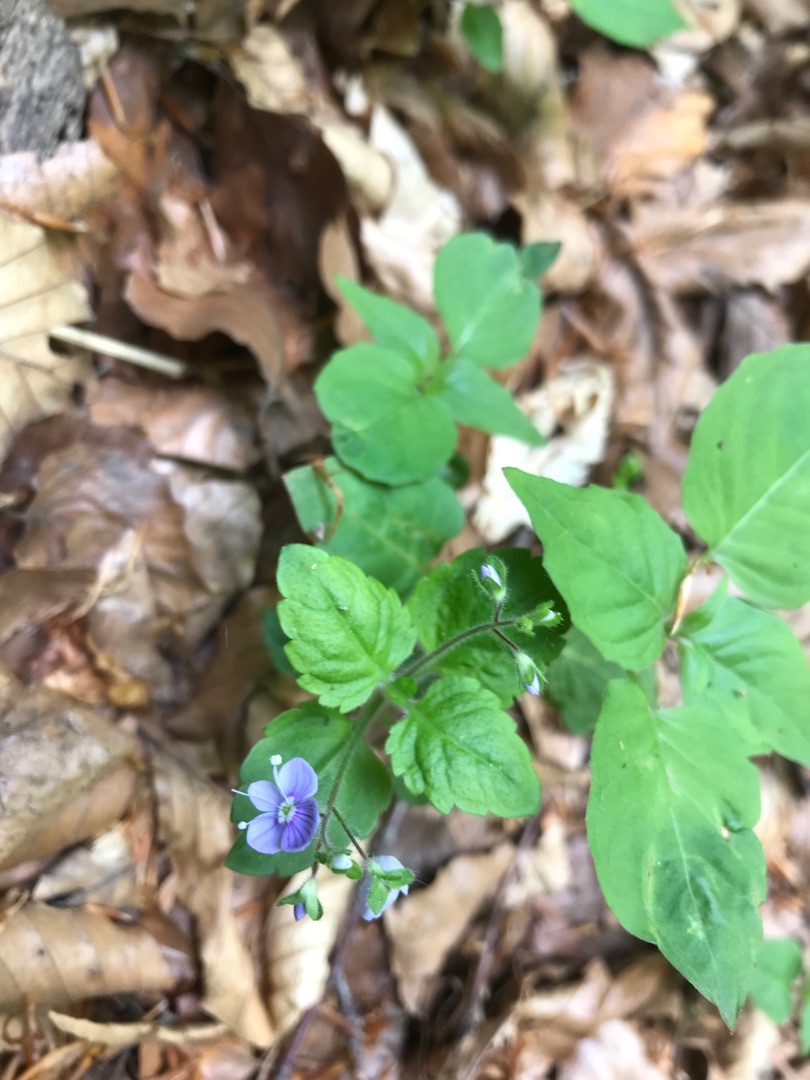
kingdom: Plantae
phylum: Tracheophyta
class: Magnoliopsida
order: Lamiales
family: Plantaginaceae
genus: Veronica
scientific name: Veronica montana
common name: Bjerg-ærenpris
